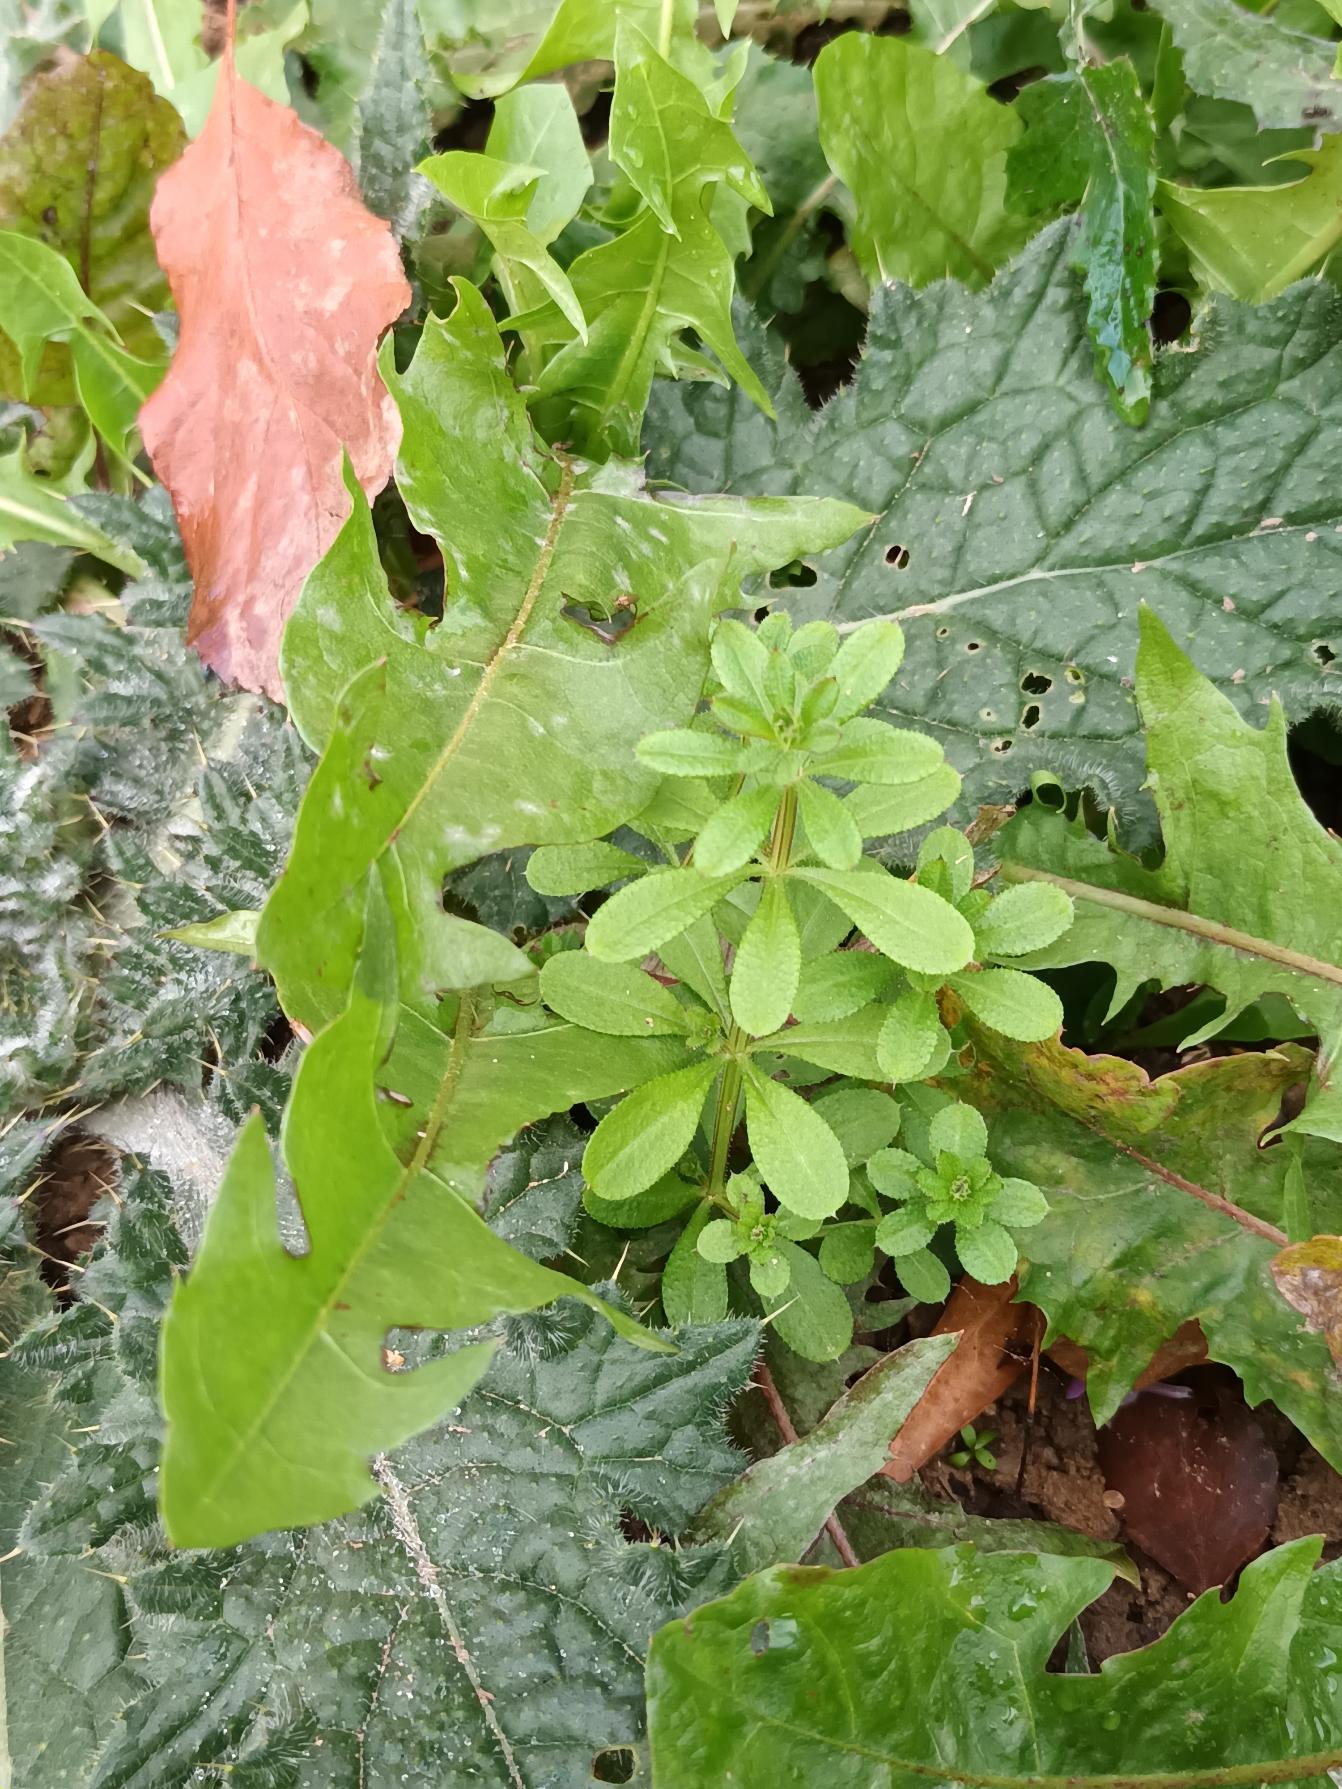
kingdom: Plantae
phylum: Tracheophyta
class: Magnoliopsida
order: Gentianales
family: Rubiaceae
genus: Galium
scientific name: Galium aparine
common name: Burre-snerre
